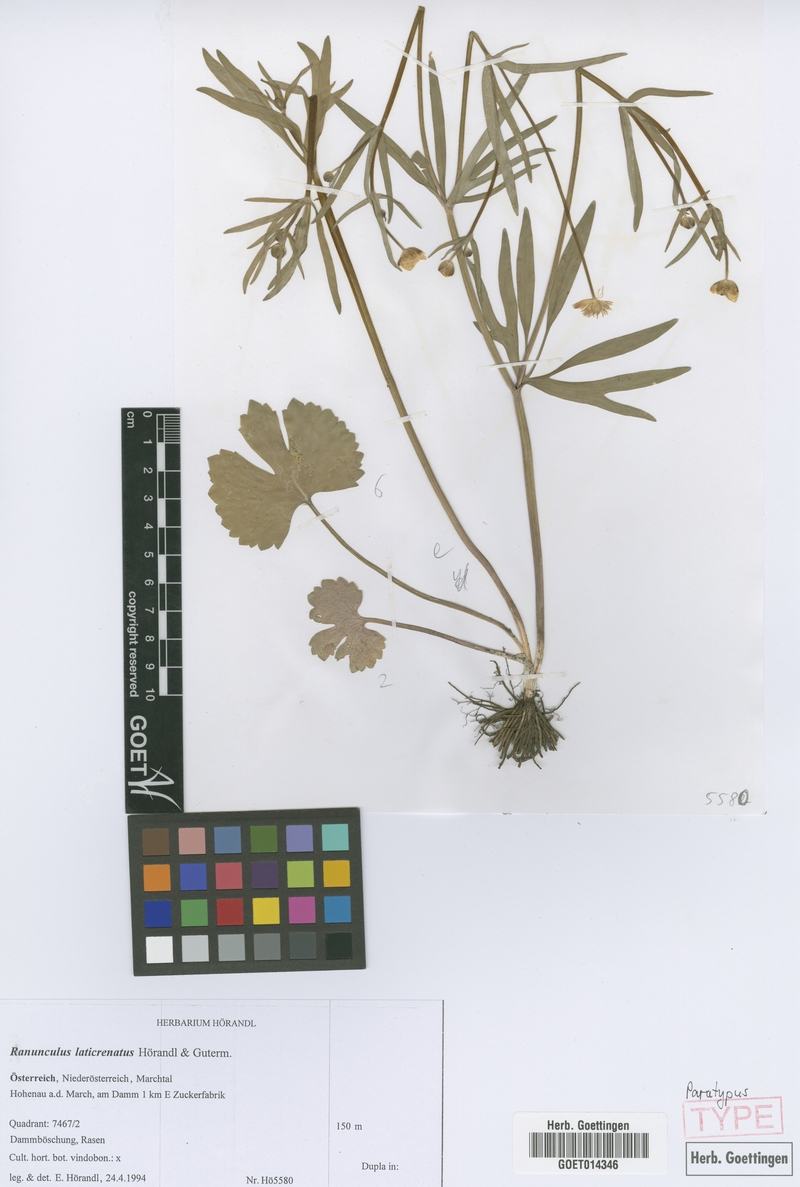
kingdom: Plantae
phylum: Tracheophyta
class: Magnoliopsida
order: Ranunculales
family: Ranunculaceae
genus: Ranunculus
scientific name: Ranunculus laticrenatus
